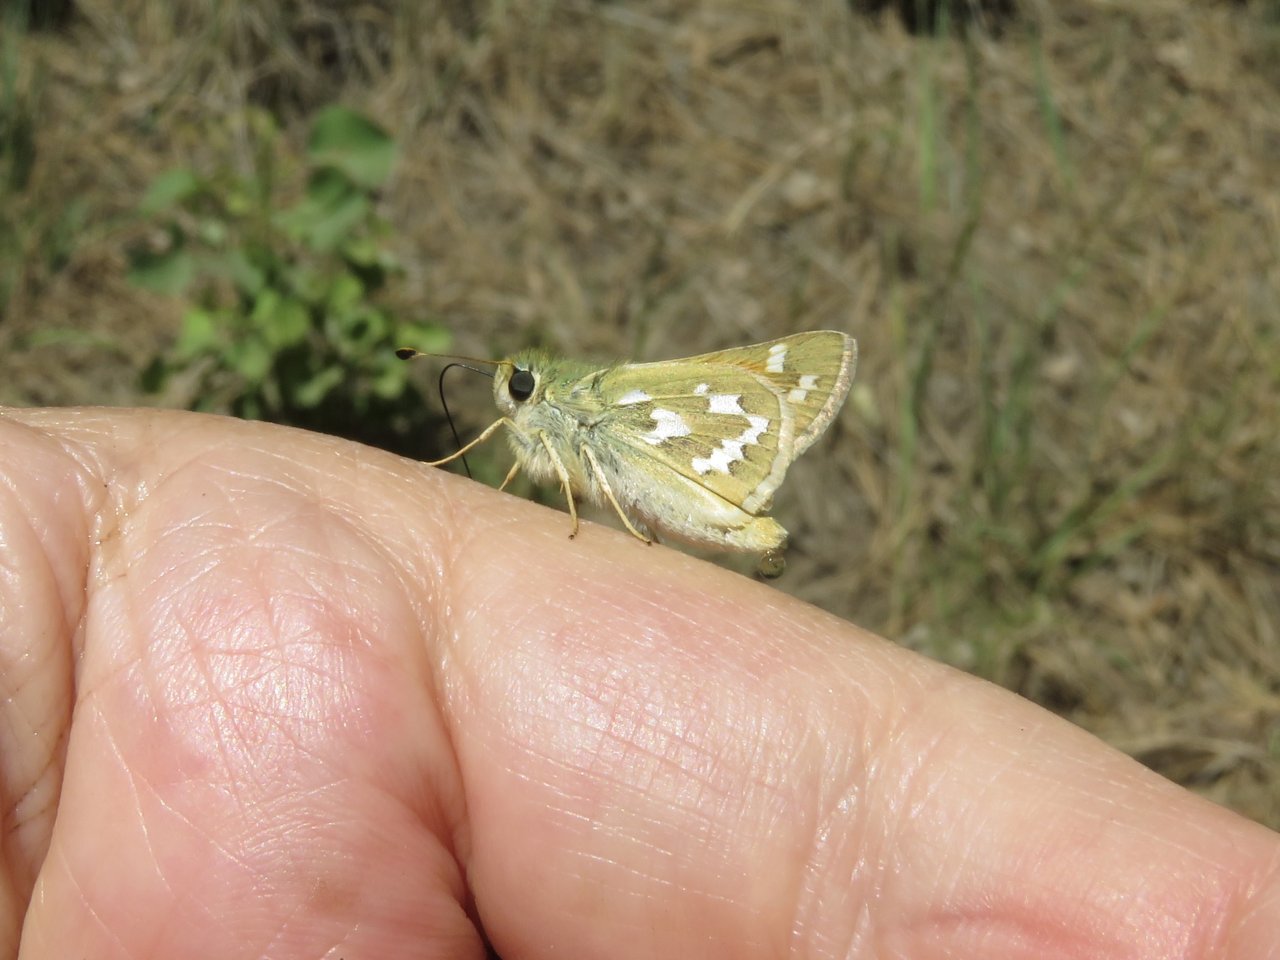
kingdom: Animalia
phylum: Arthropoda
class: Insecta
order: Lepidoptera
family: Hesperiidae
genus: Hesperia
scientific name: Hesperia comma
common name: Western Branded Skipper
